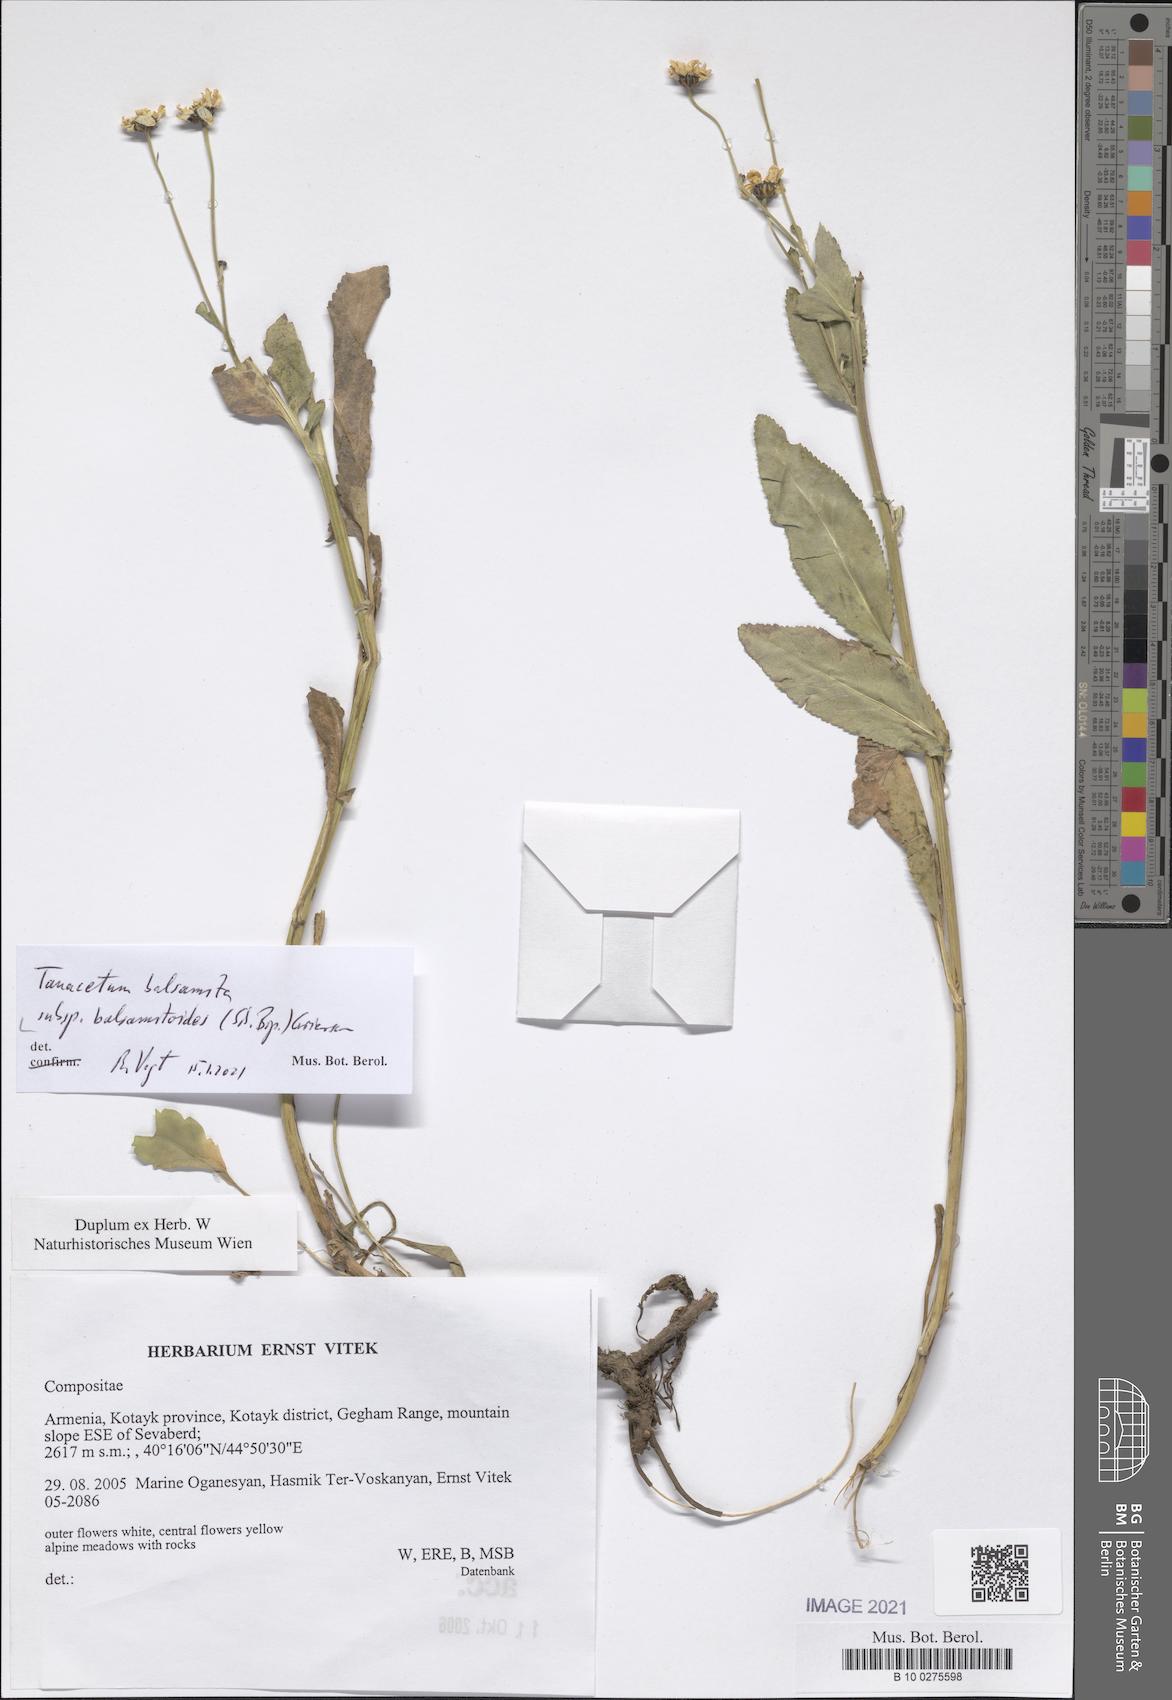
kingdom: Plantae
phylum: Tracheophyta
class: Magnoliopsida
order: Asterales
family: Asteraceae
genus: Tanacetum
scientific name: Tanacetum balsamitoides
